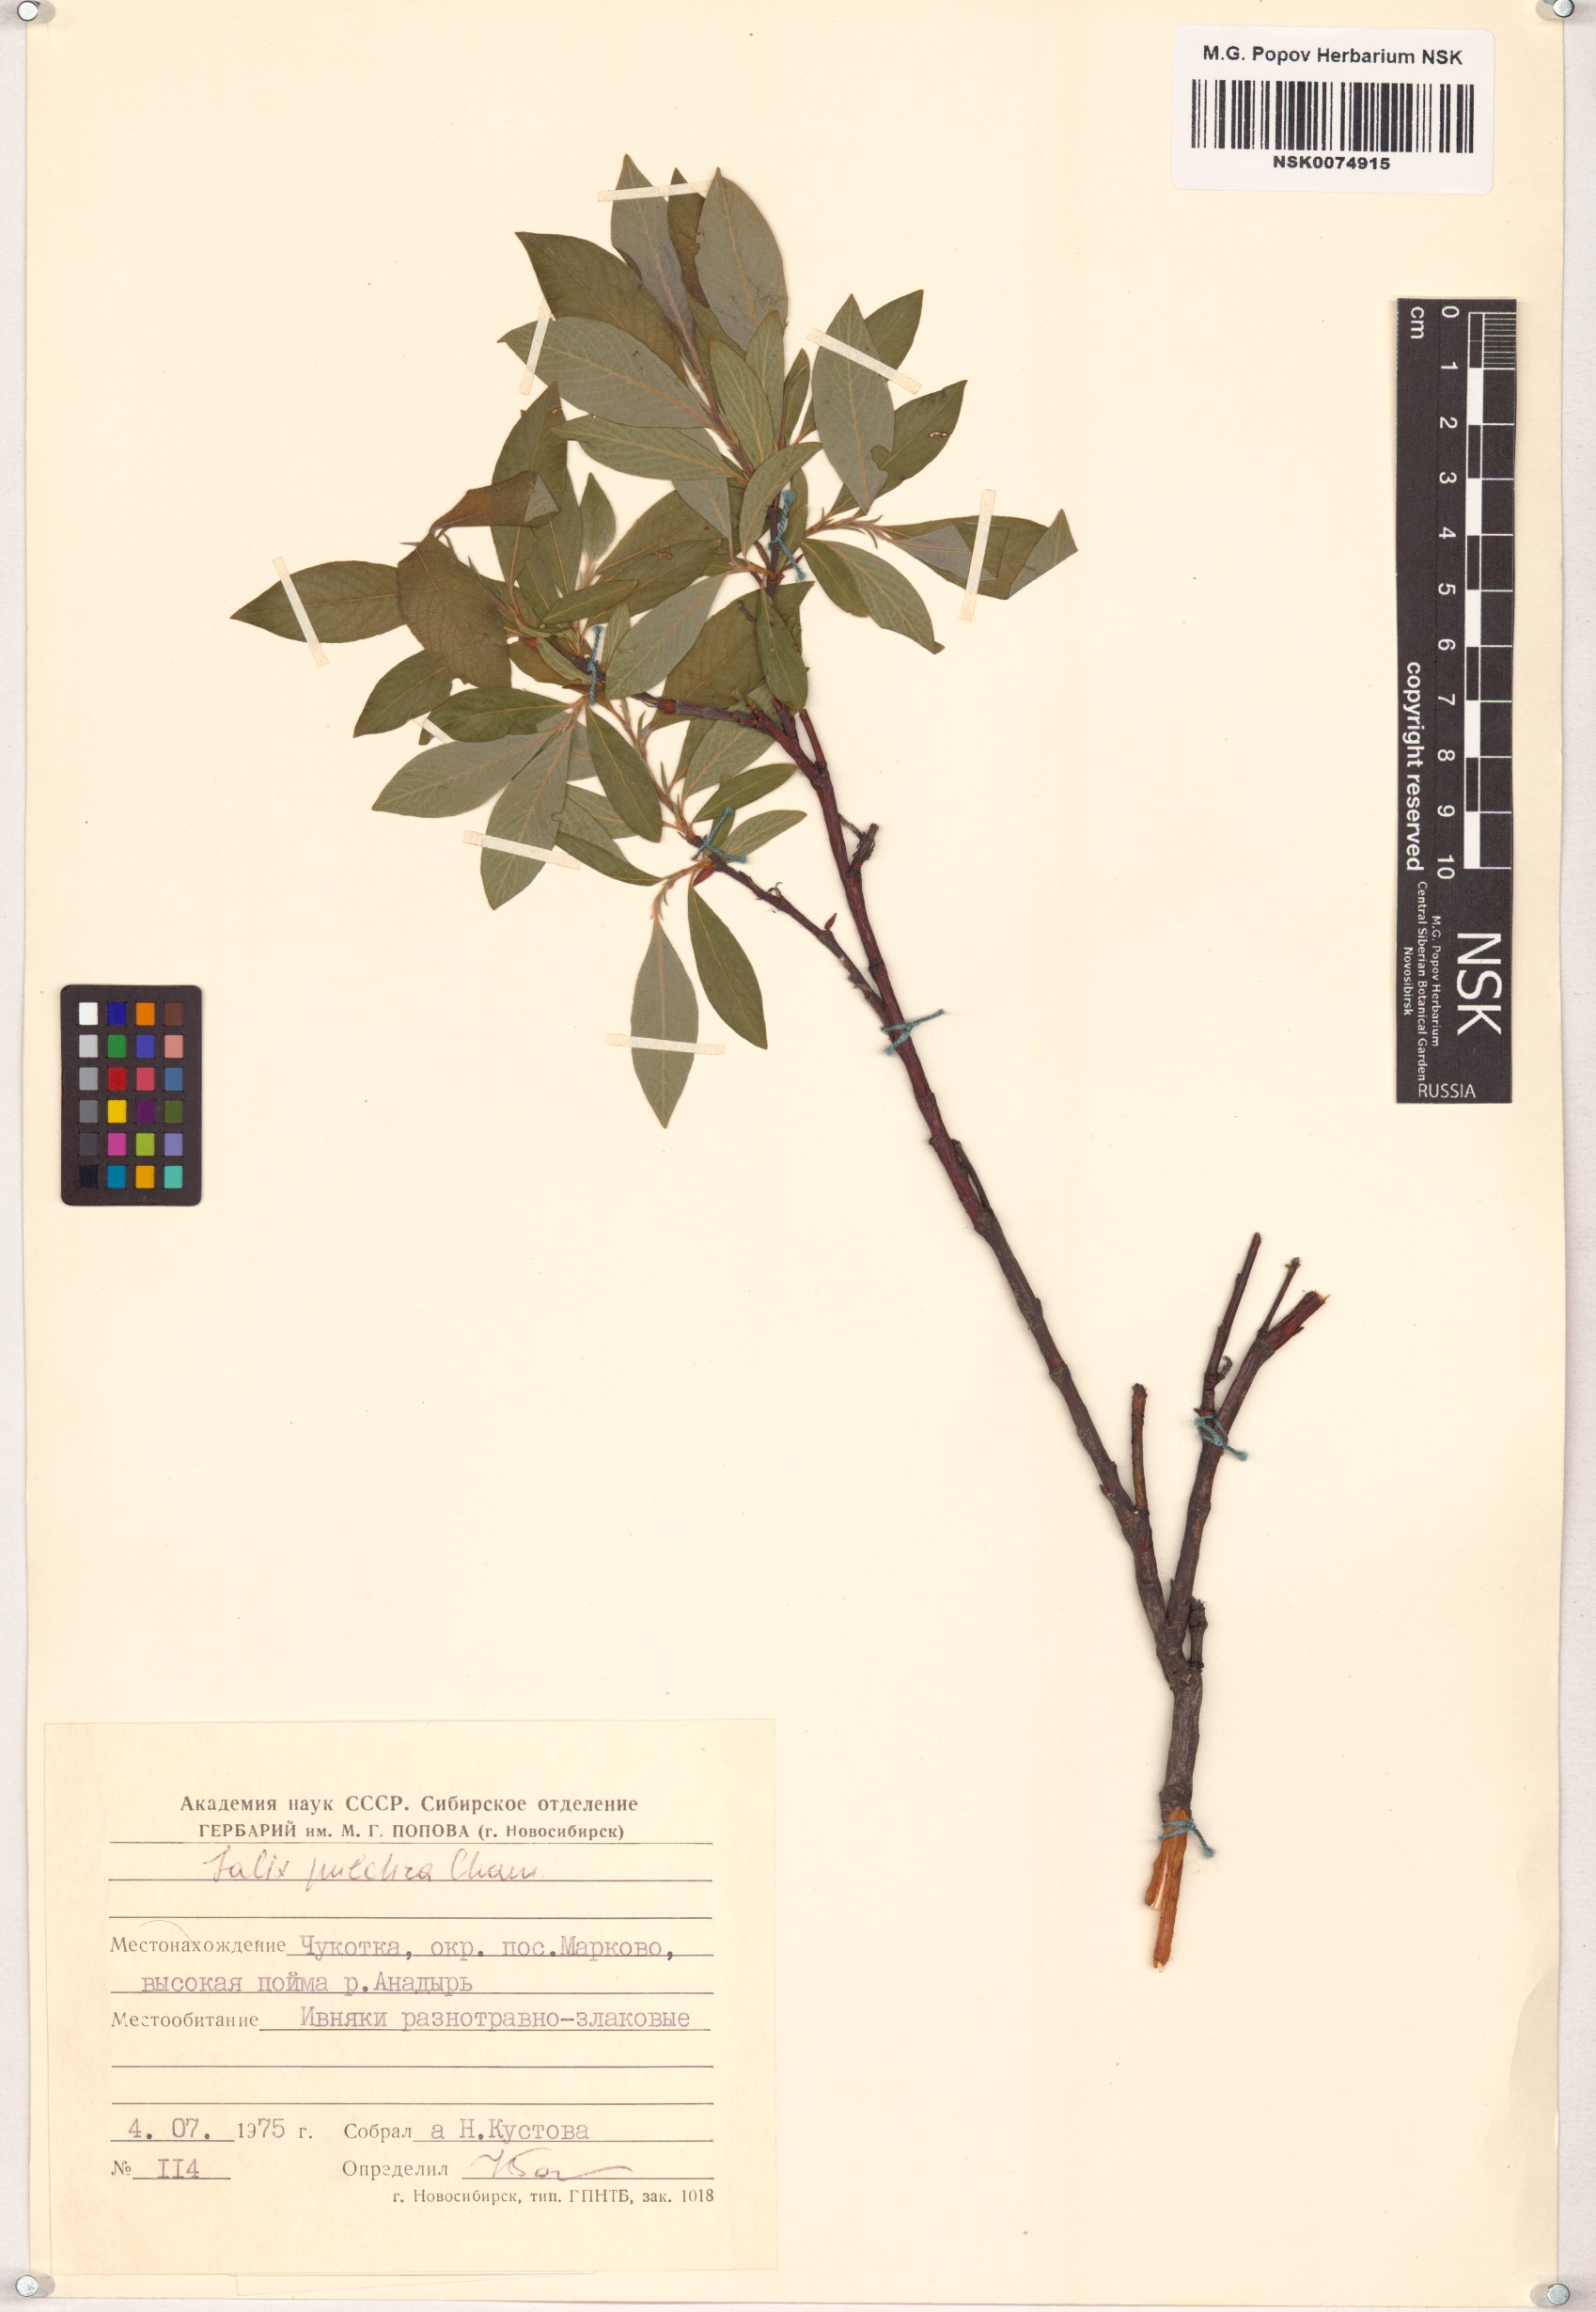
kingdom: Plantae
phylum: Tracheophyta
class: Magnoliopsida
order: Malpighiales
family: Salicaceae
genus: Salix
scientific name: Salix pulchra
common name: Diamond-leaved willow
